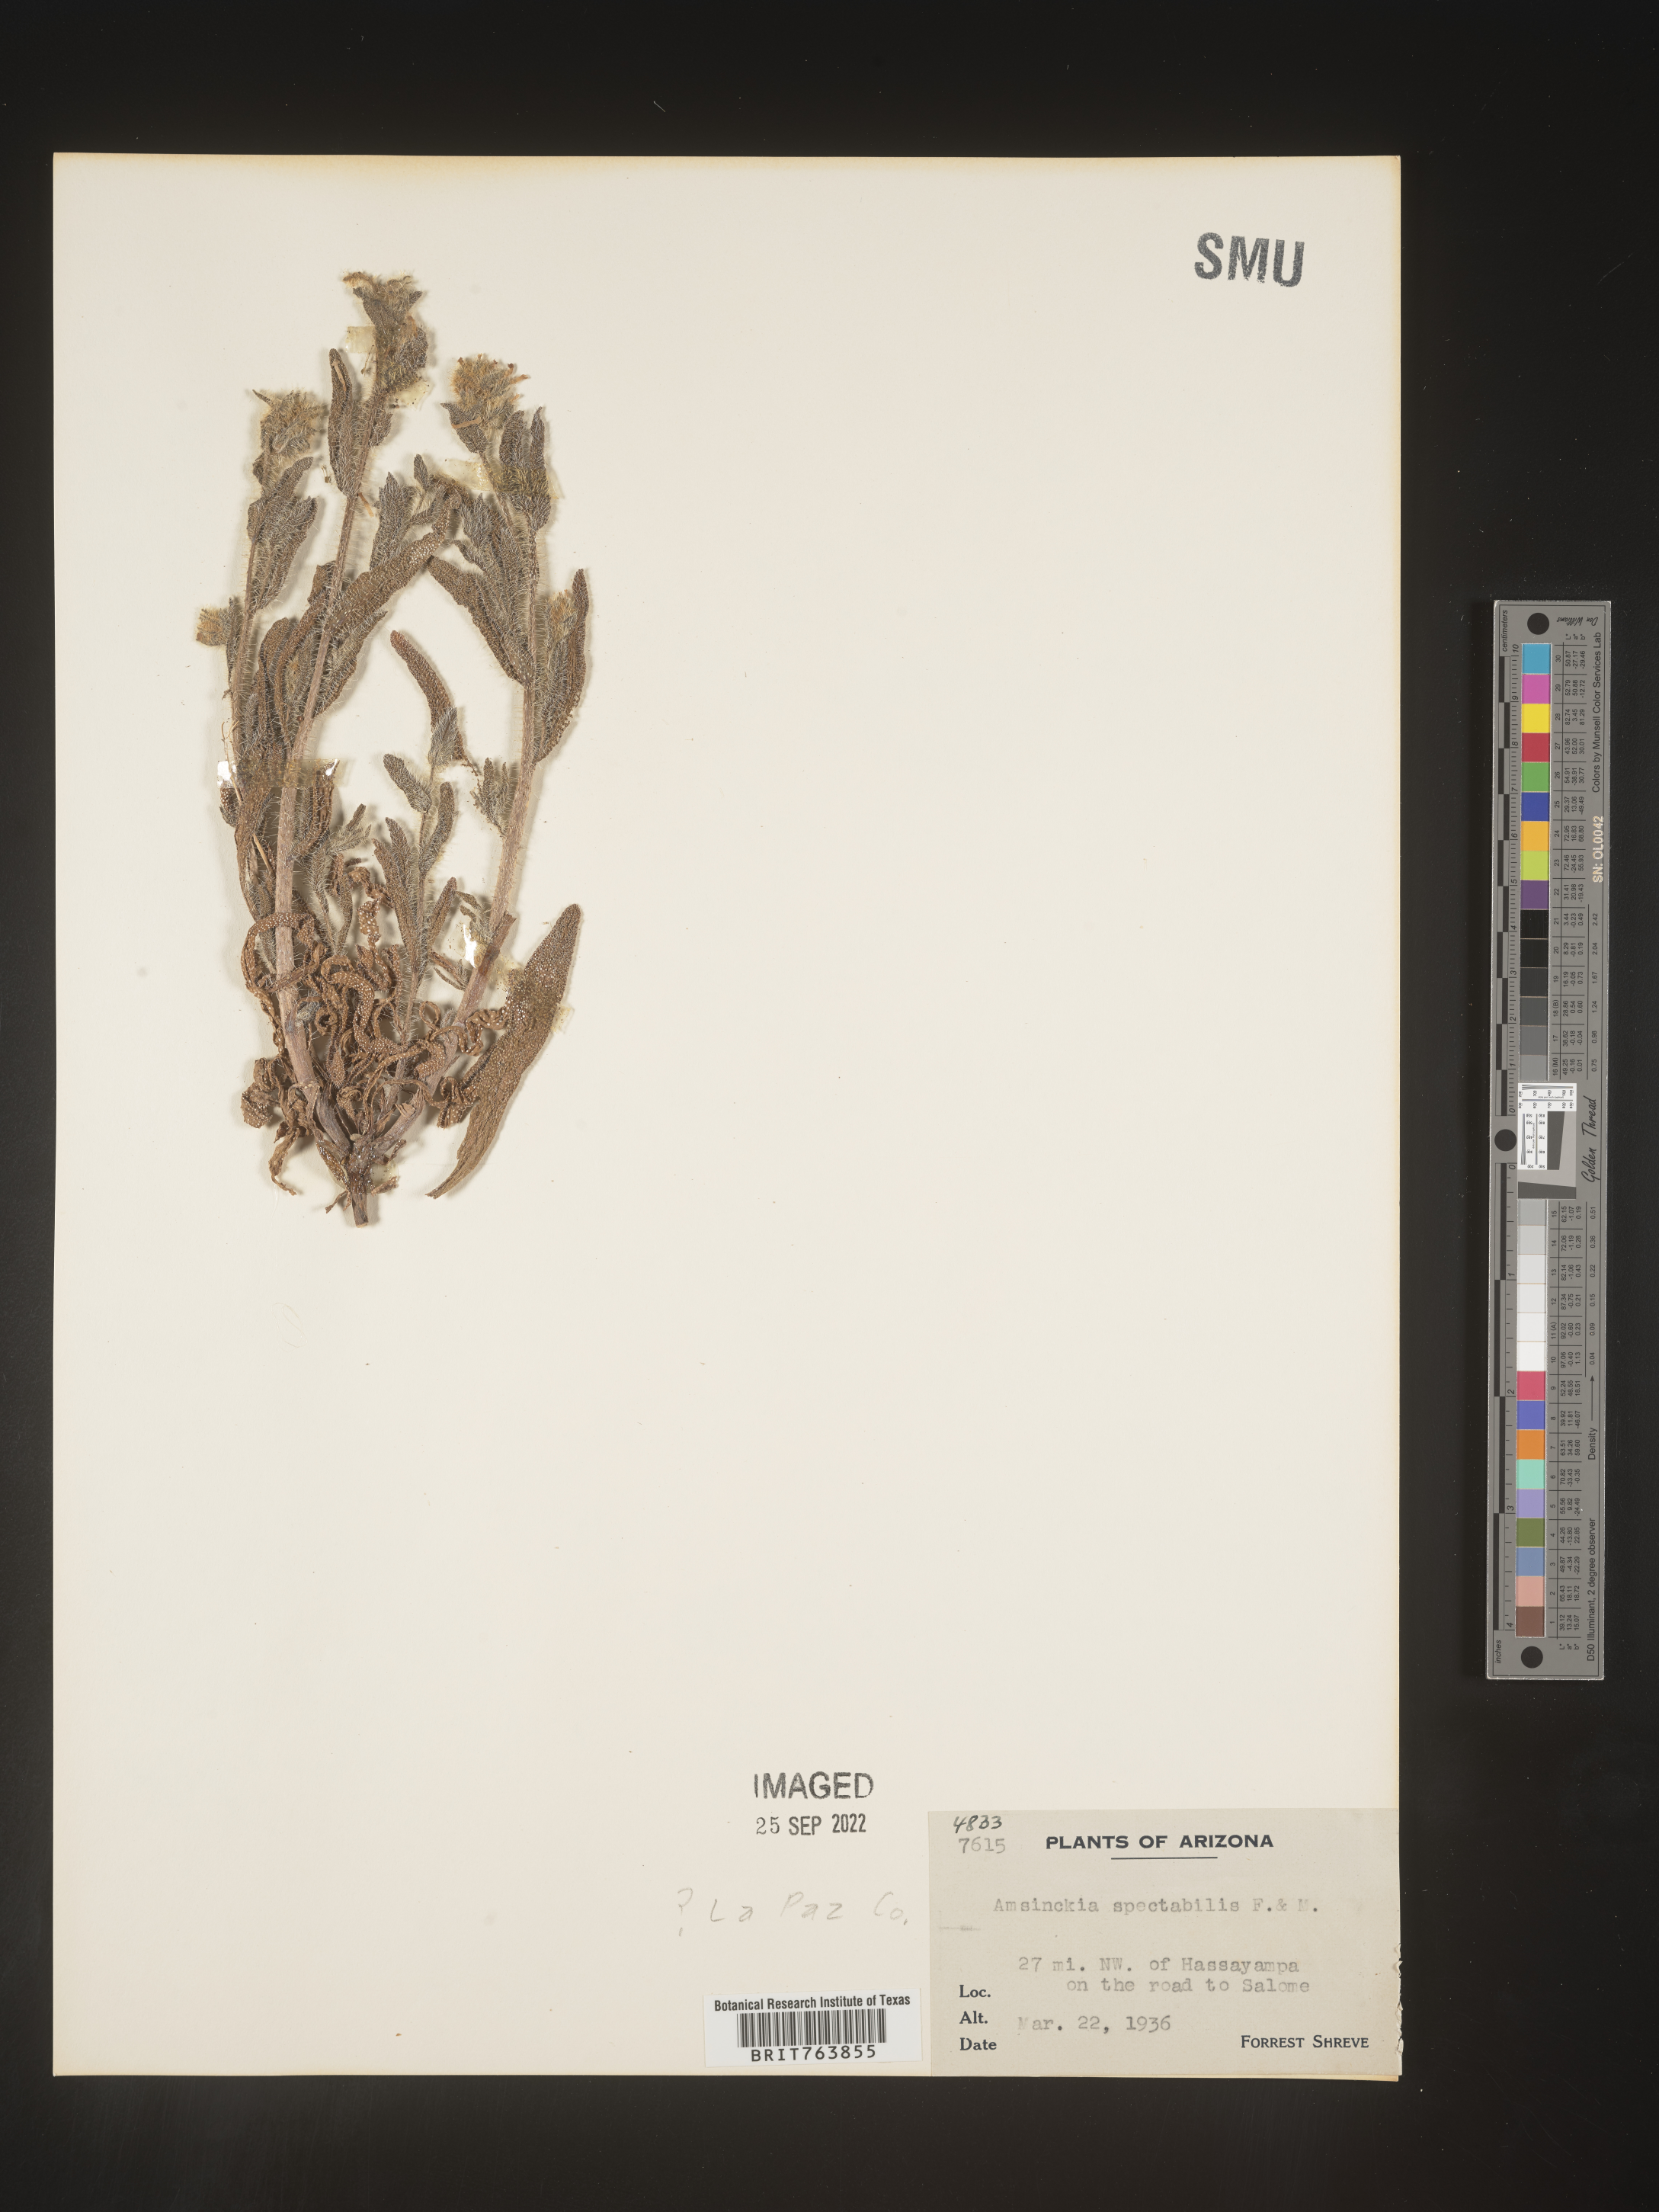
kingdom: Plantae
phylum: Tracheophyta
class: Magnoliopsida
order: Boraginales
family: Boraginaceae
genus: Amsinckia
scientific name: Amsinckia
